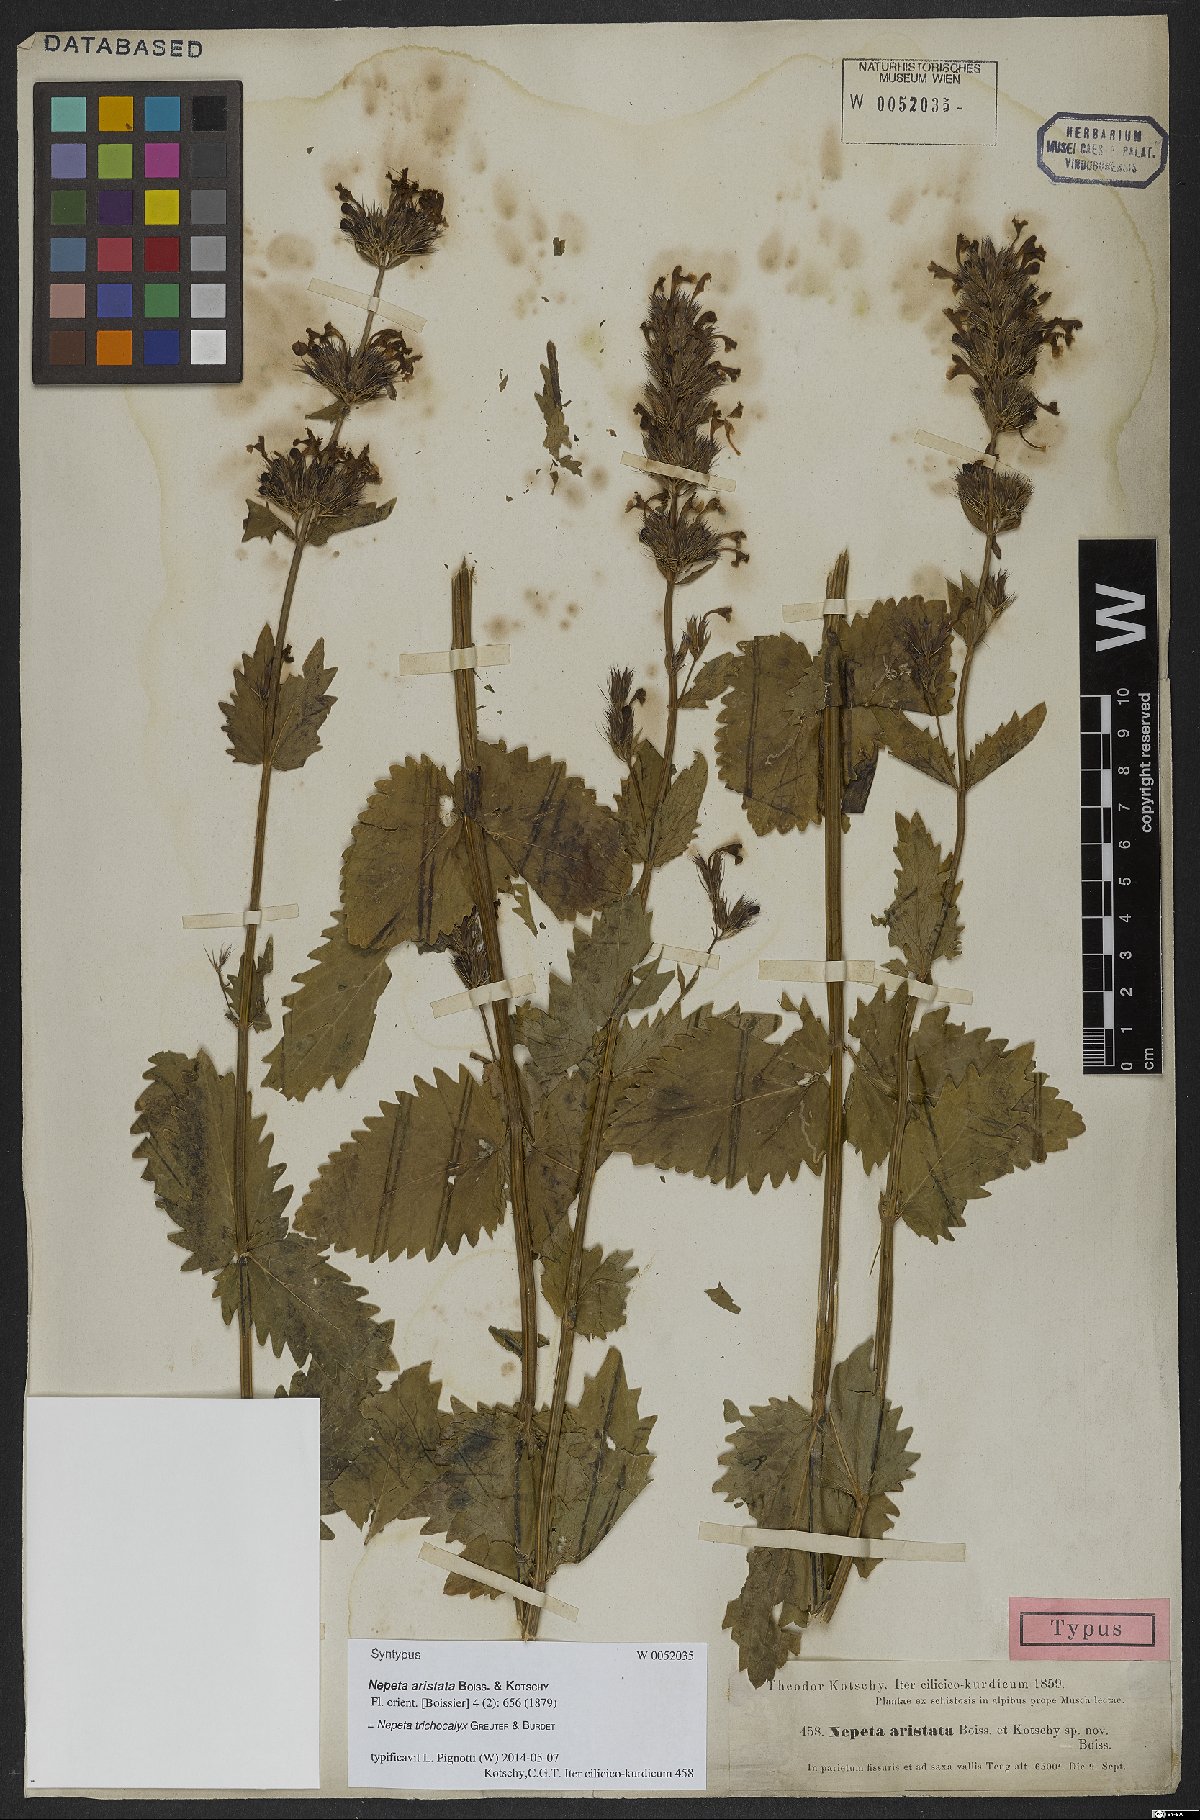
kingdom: Plantae
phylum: Tracheophyta
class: Magnoliopsida
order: Lamiales
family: Lamiaceae
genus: Nepeta
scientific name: Nepeta trichocalyx
